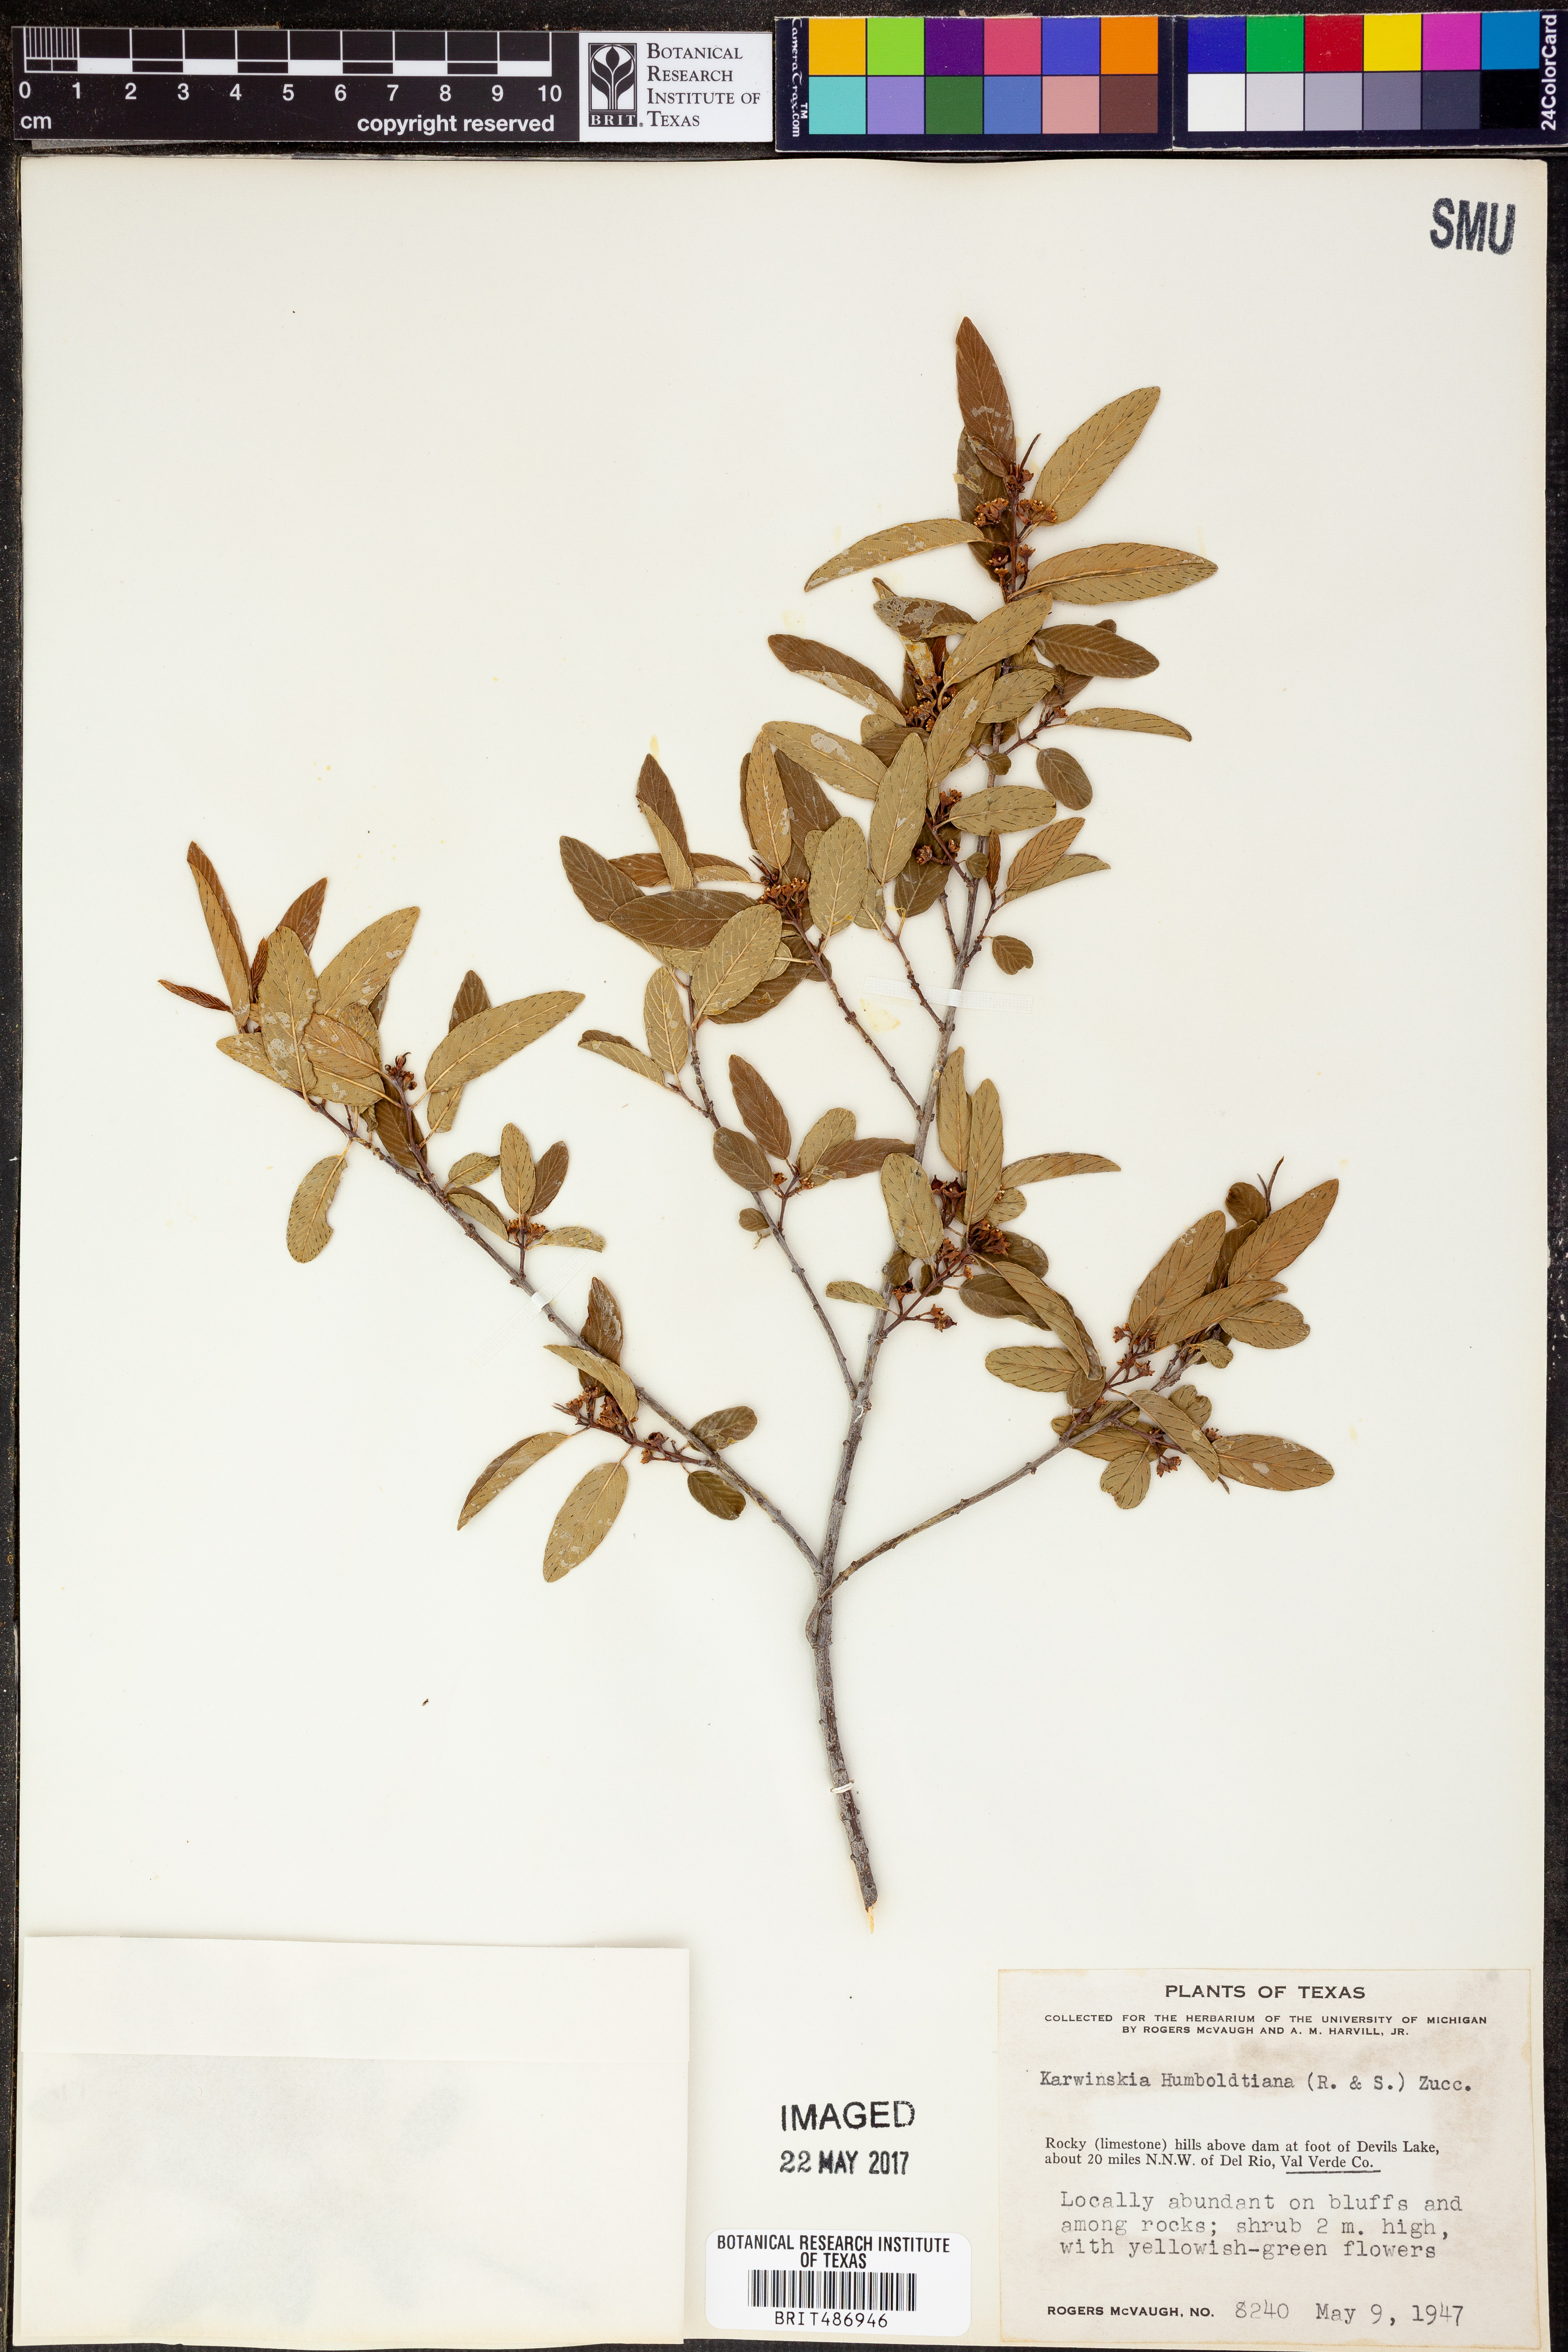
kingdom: Plantae
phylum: Tracheophyta
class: Magnoliopsida
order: Rosales
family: Rhamnaceae
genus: Karwinskia
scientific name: Karwinskia humboldtiana
